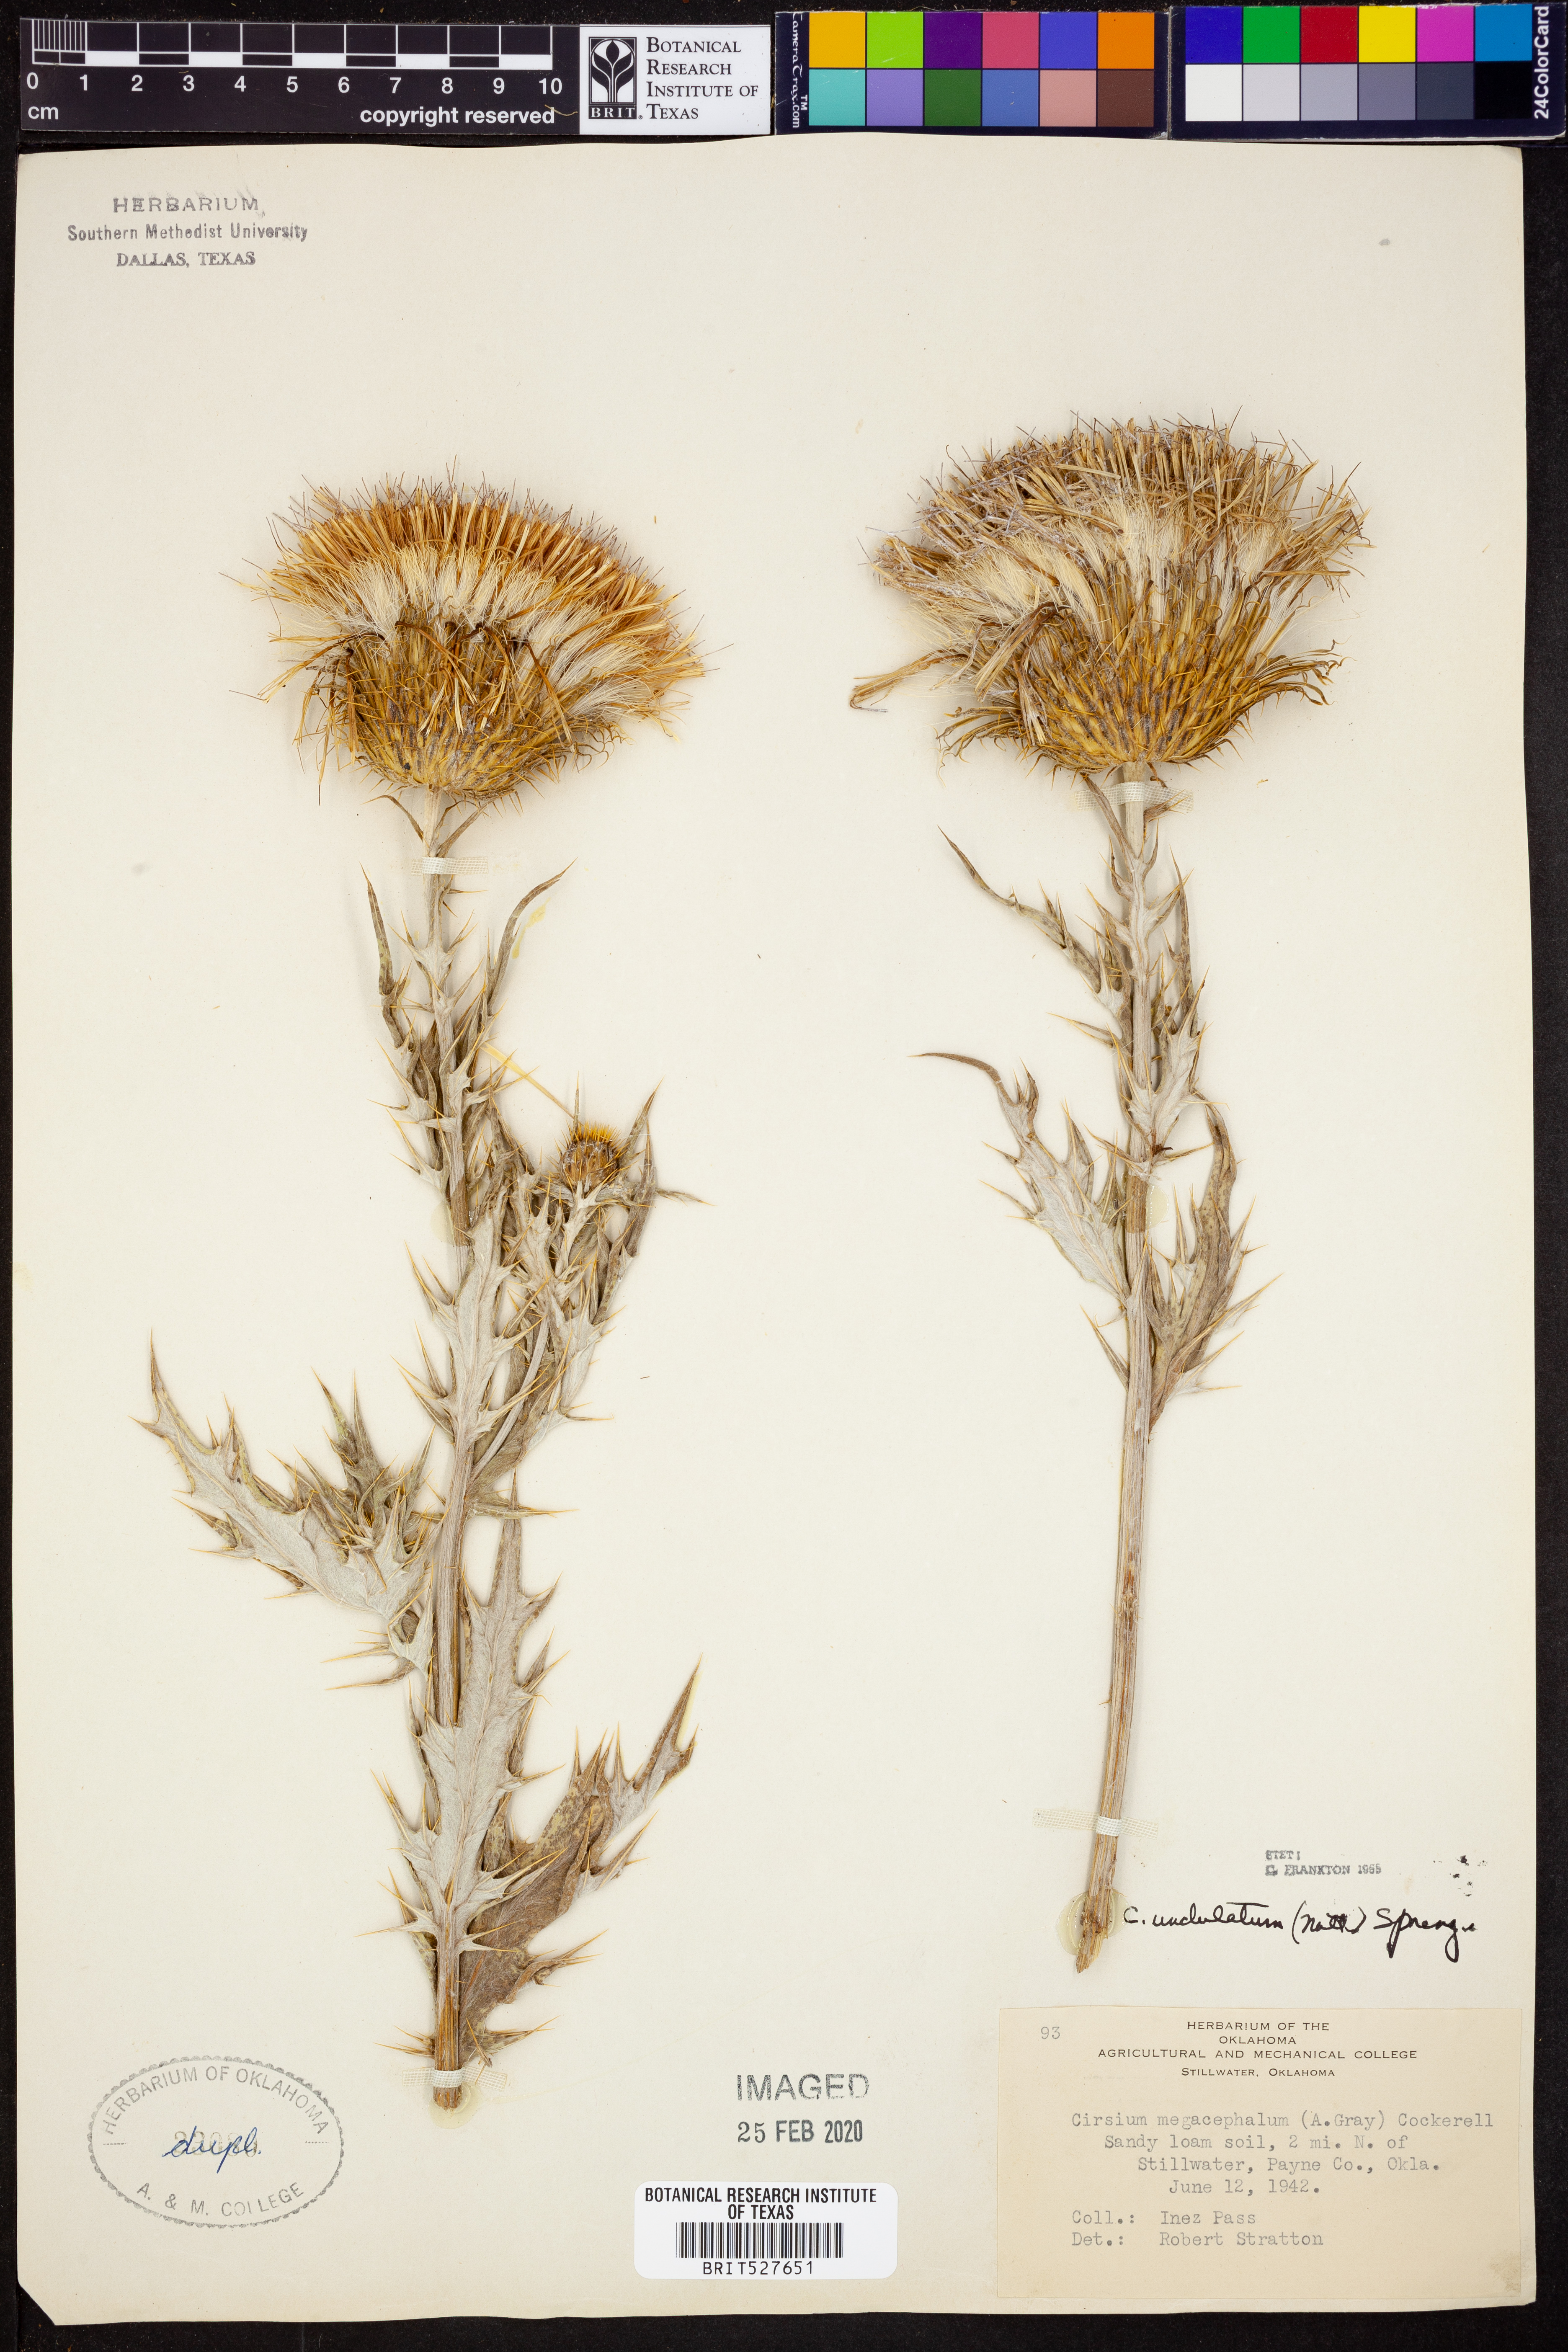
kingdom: Plantae
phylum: Tracheophyta
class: Magnoliopsida
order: Asterales
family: Asteraceae
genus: Cirsium
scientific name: Cirsium undulatum
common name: Pasture thistle
